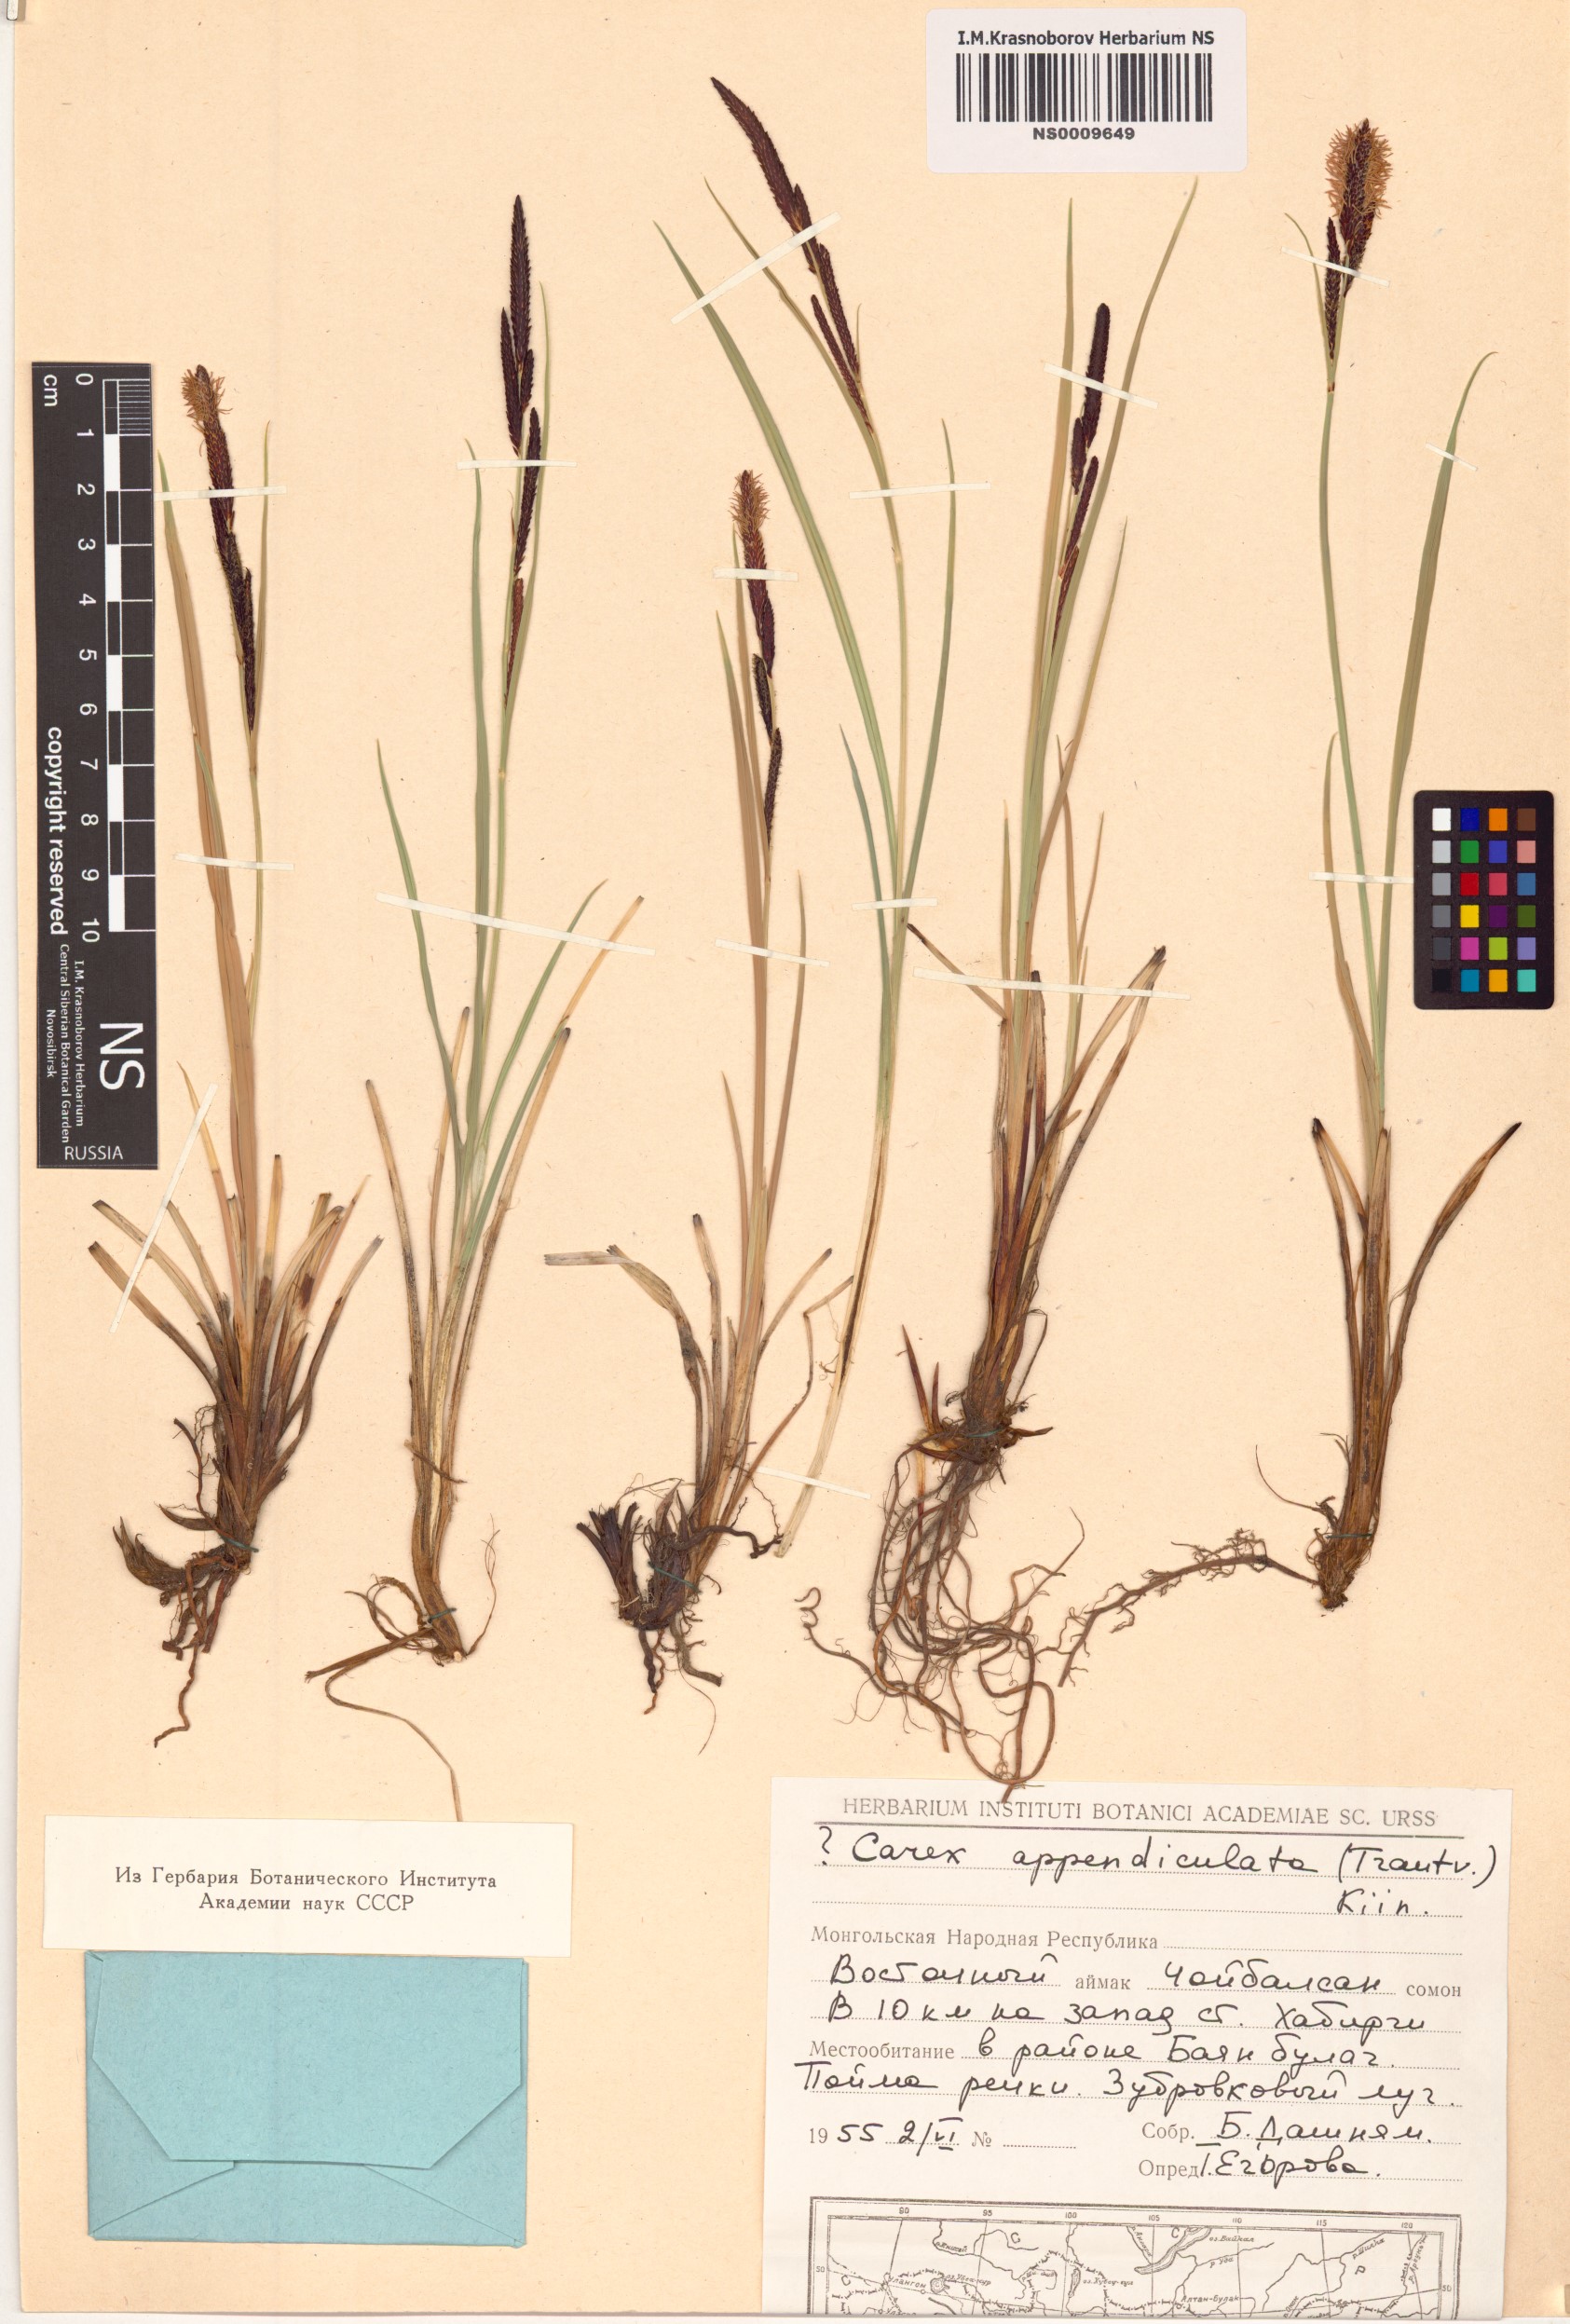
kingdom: Plantae
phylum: Tracheophyta
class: Liliopsida
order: Poales
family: Cyperaceae
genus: Carex
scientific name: Carex appendiculata
